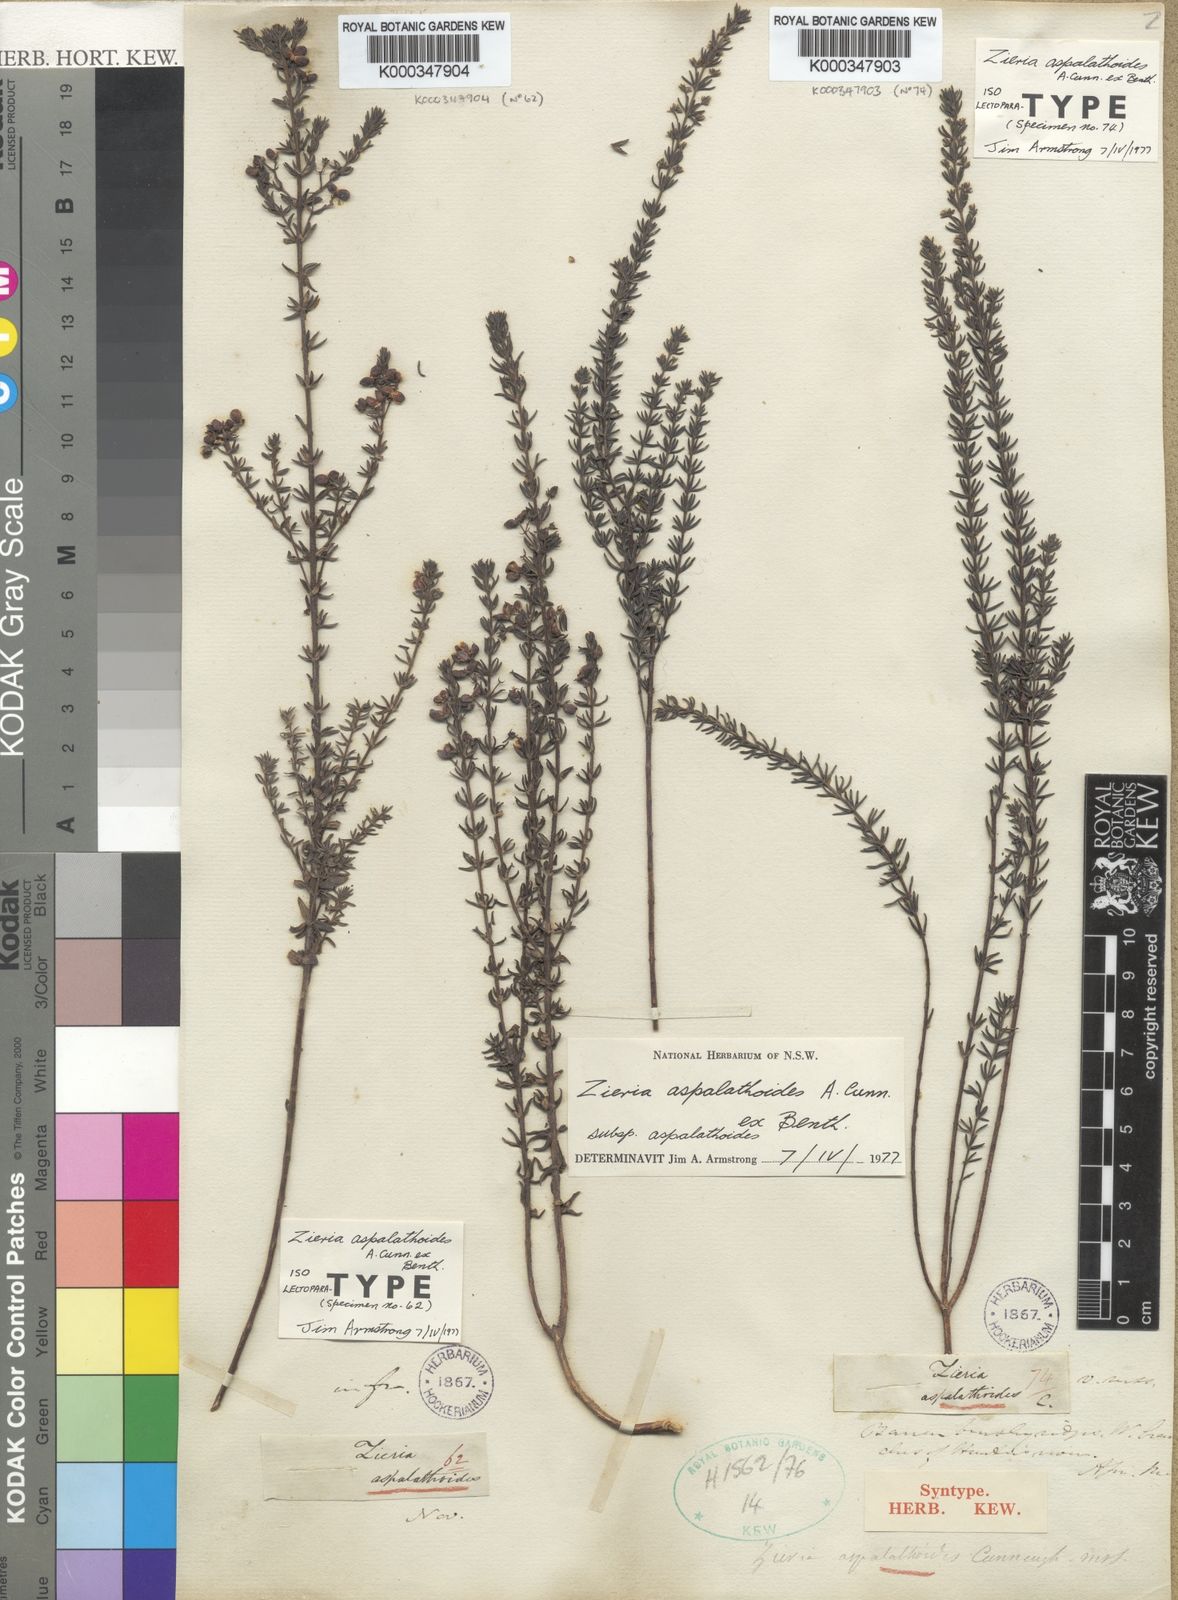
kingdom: Plantae
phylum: Tracheophyta
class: Magnoliopsida
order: Sapindales
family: Rutaceae
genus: Zieria
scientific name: Zieria aspalathoides
